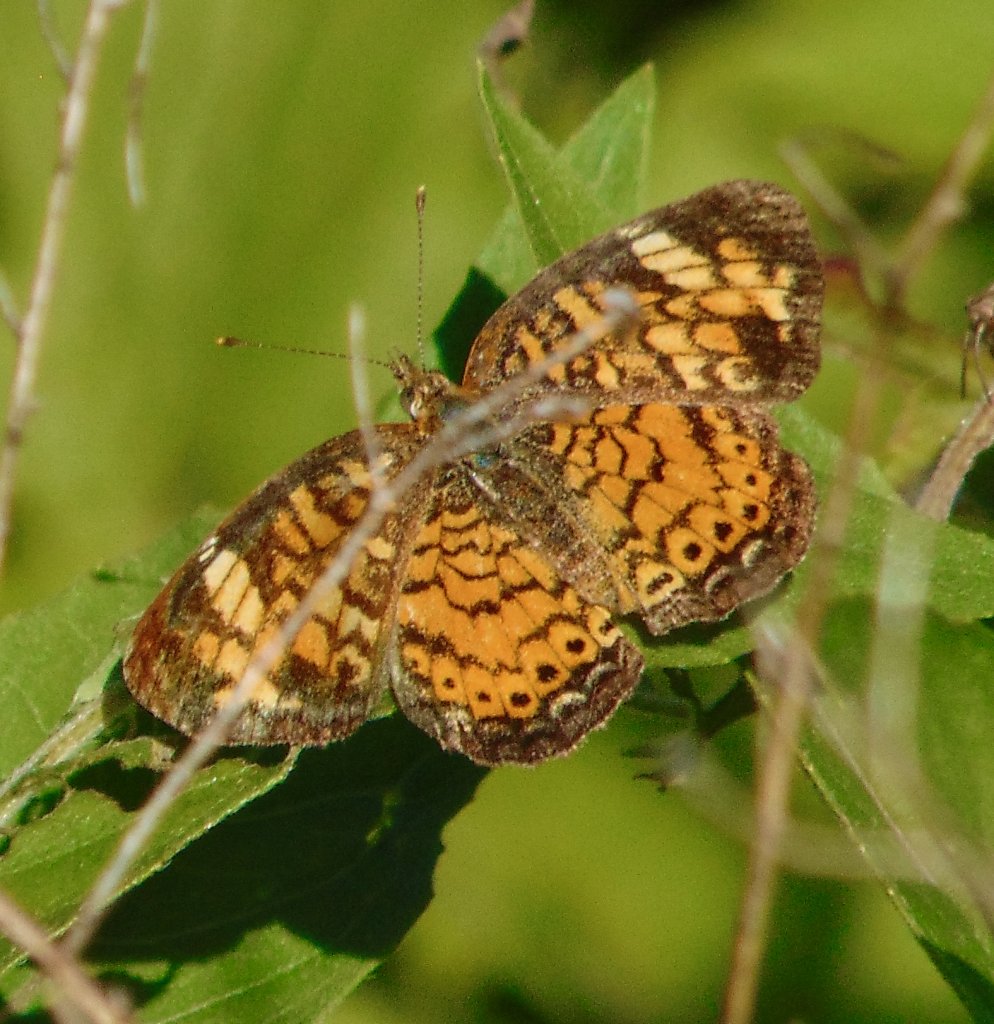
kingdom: Animalia
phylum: Arthropoda
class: Insecta
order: Lepidoptera
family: Nymphalidae
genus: Phyciodes
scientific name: Phyciodes tharos
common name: Pearl Crescent
